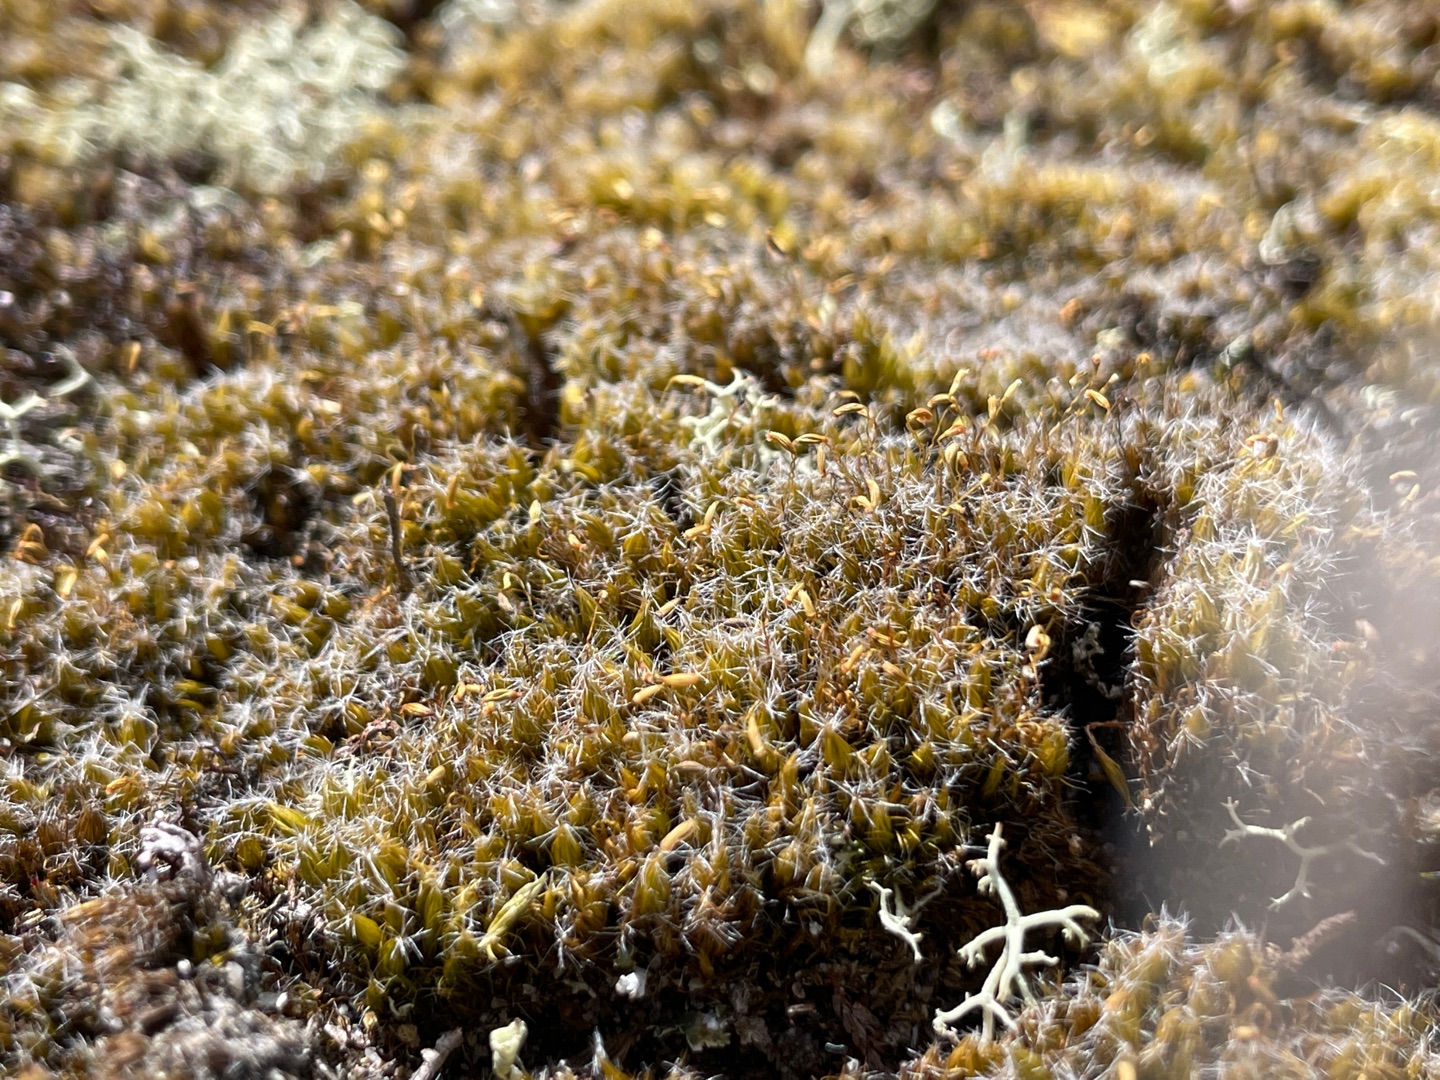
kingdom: Plantae
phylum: Bryophyta
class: Bryopsida
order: Dicranales
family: Leucobryaceae
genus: Campylopus
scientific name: Campylopus introflexus
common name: Stjerne-bredribbe
